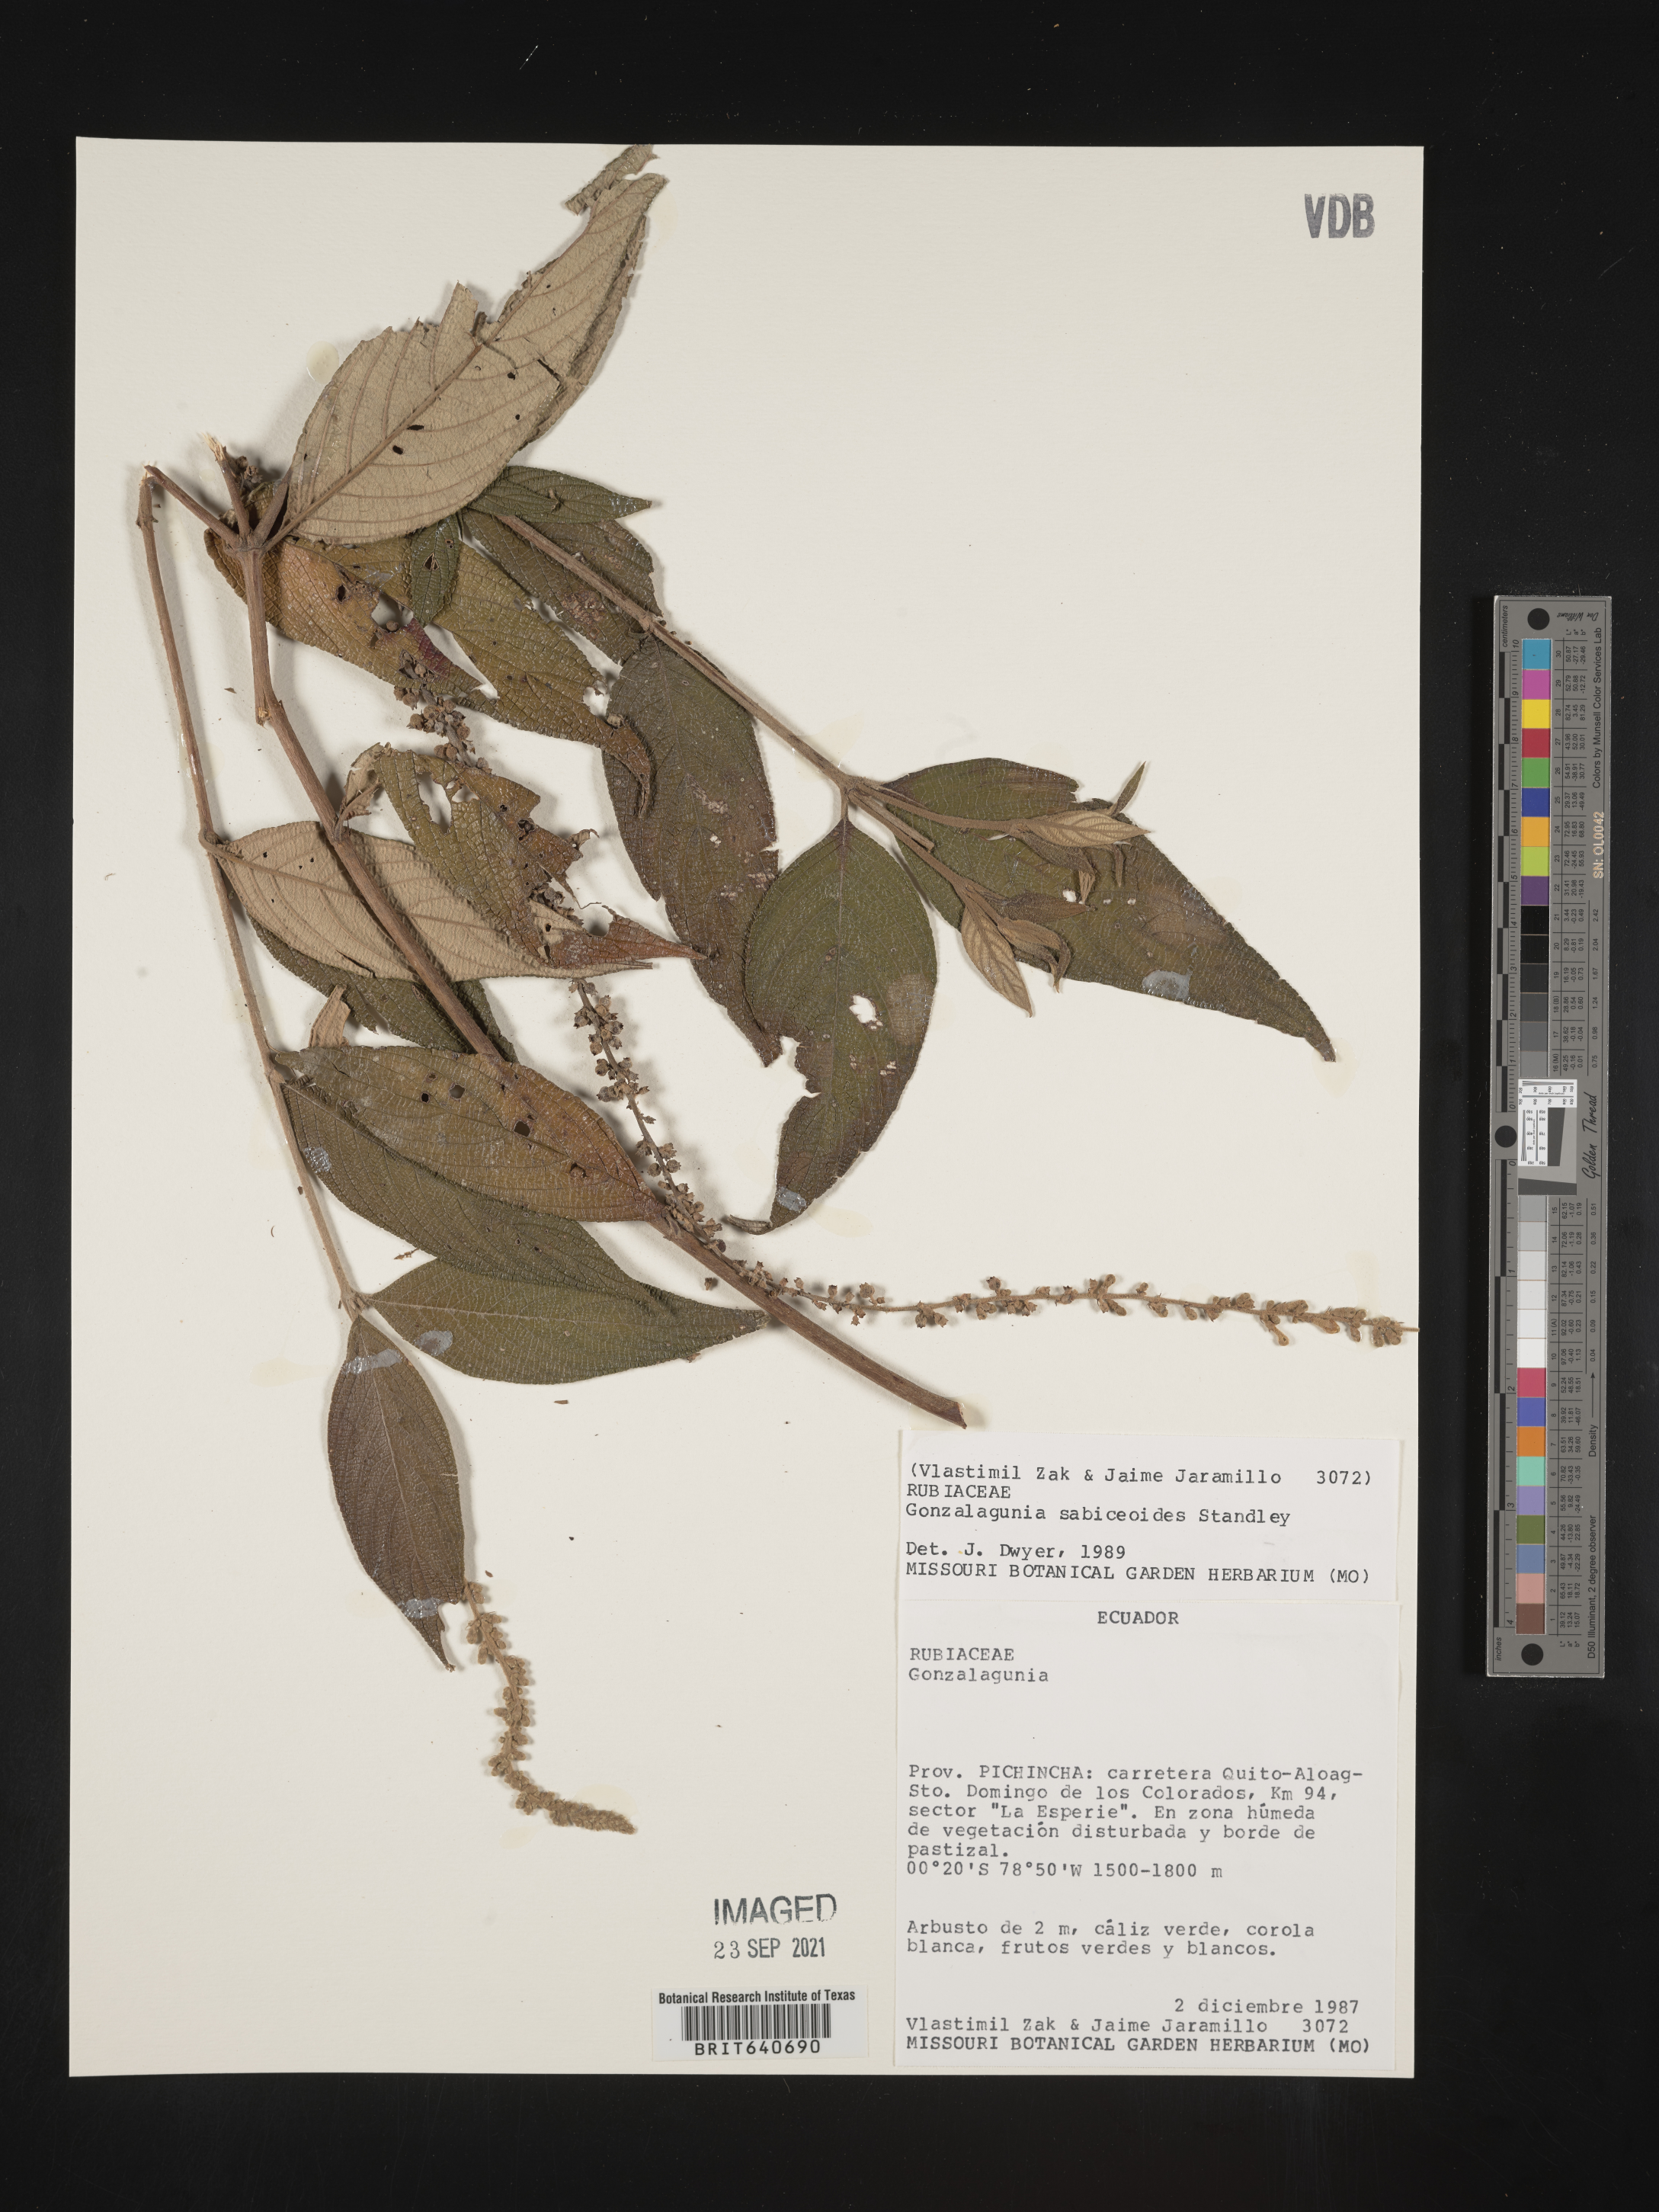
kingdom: Plantae
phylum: Tracheophyta
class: Magnoliopsida
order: Gentianales
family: Rubiaceae
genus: Gonzalagunia
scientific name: Gonzalagunia
